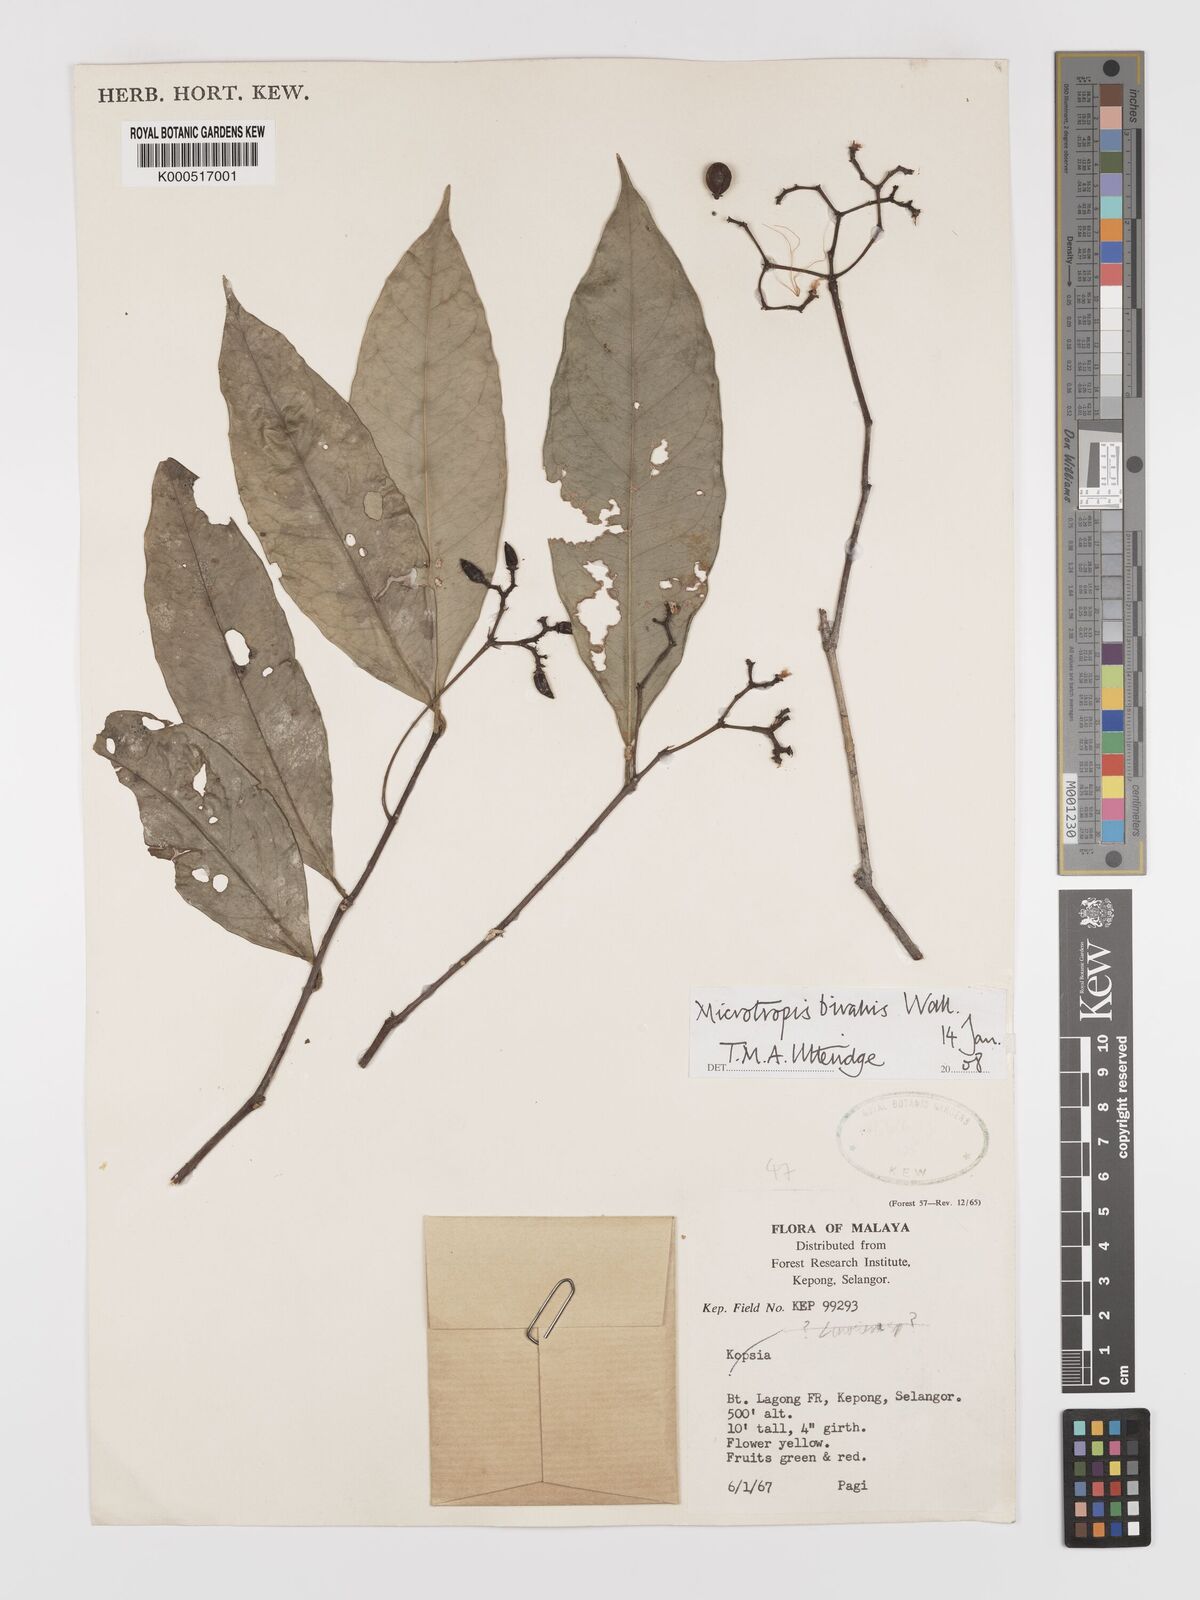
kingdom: Plantae
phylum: Tracheophyta
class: Magnoliopsida
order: Celastrales
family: Celastraceae
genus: Microtropis
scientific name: Microtropis bivalvis
